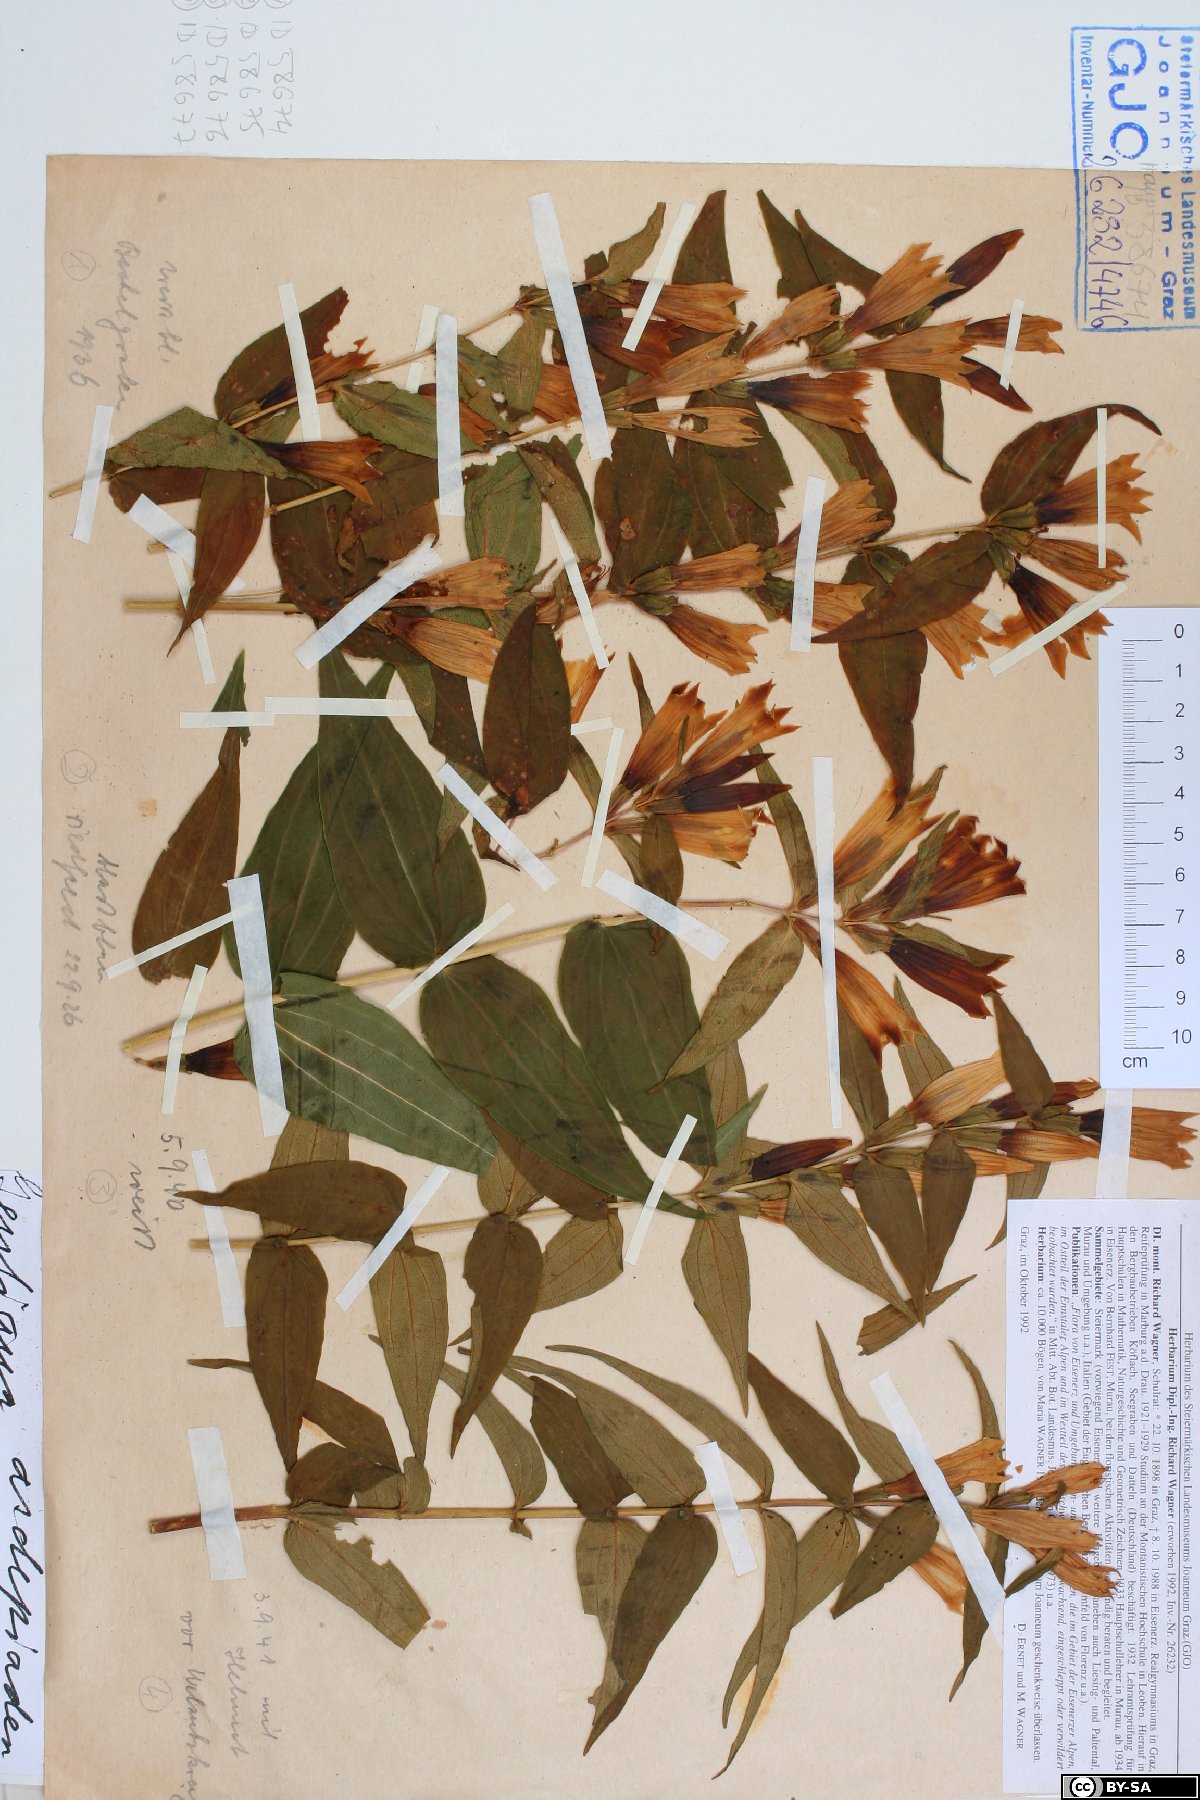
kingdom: Plantae
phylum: Tracheophyta
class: Magnoliopsida
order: Gentianales
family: Gentianaceae
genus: Gentiana
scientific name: Gentiana asclepiadea
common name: Willow gentian
